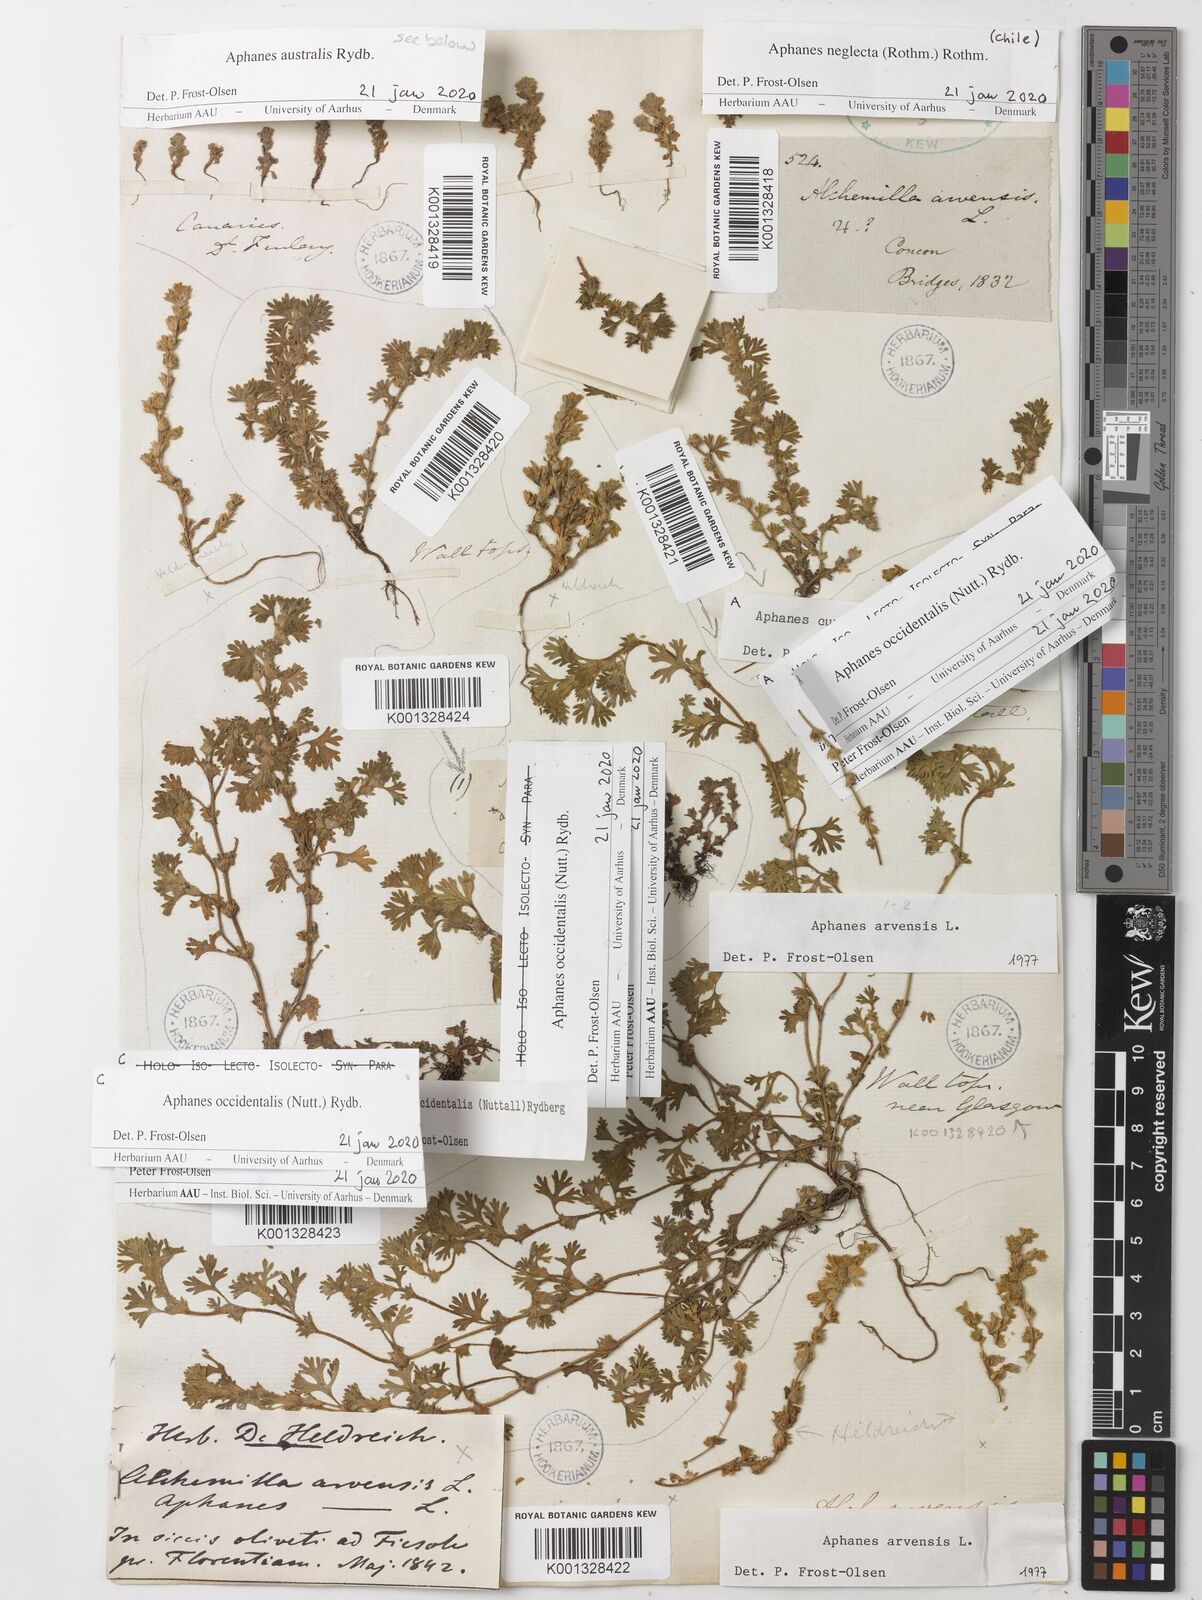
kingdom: Plantae
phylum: Tracheophyta
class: Magnoliopsida
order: Rosales
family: Rosaceae
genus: Aphanes
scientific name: Aphanes arvensis
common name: Parsley-piert
